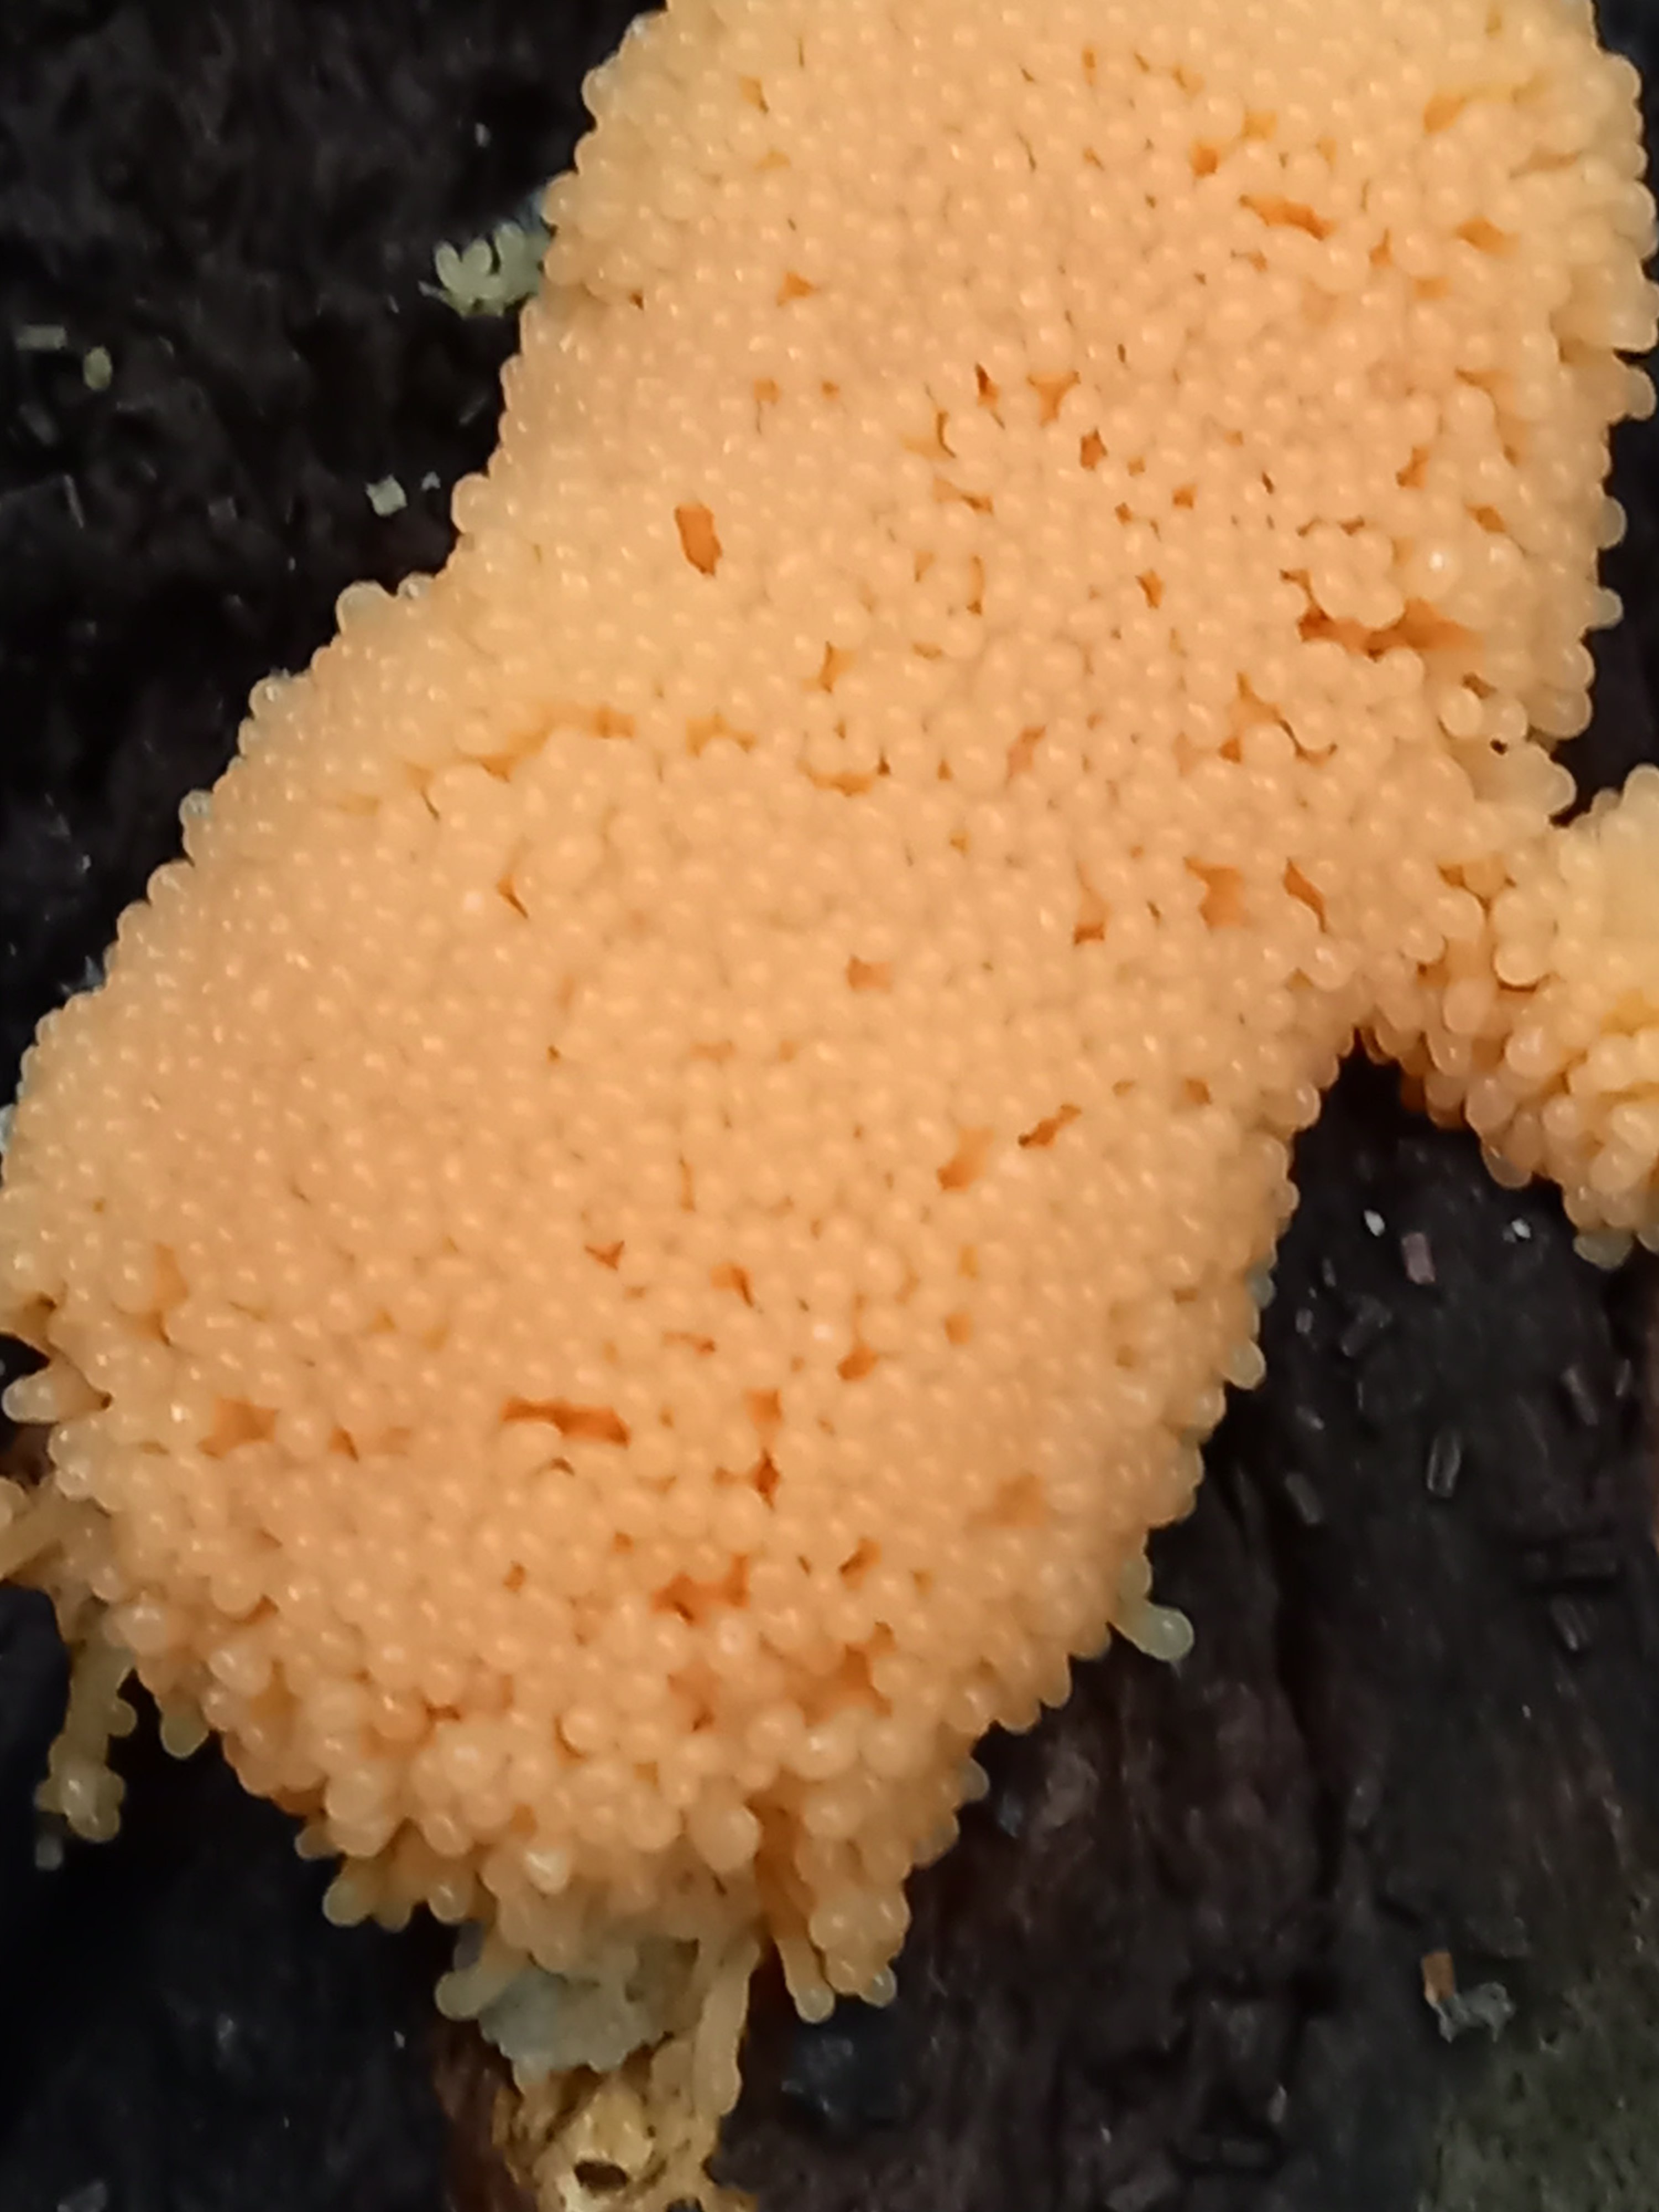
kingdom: Protozoa
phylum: Mycetozoa
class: Myxomycetes
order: Cribrariales
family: Tubiferaceae
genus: Tubifera
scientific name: Tubifera ferruginosa
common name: kanel-støvrør
